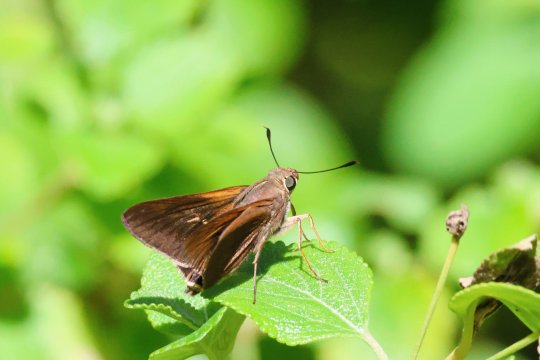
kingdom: Animalia
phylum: Arthropoda
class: Insecta
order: Lepidoptera
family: Hesperiidae
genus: Asbolis
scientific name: Asbolis capucinus
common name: Monk Skipper
